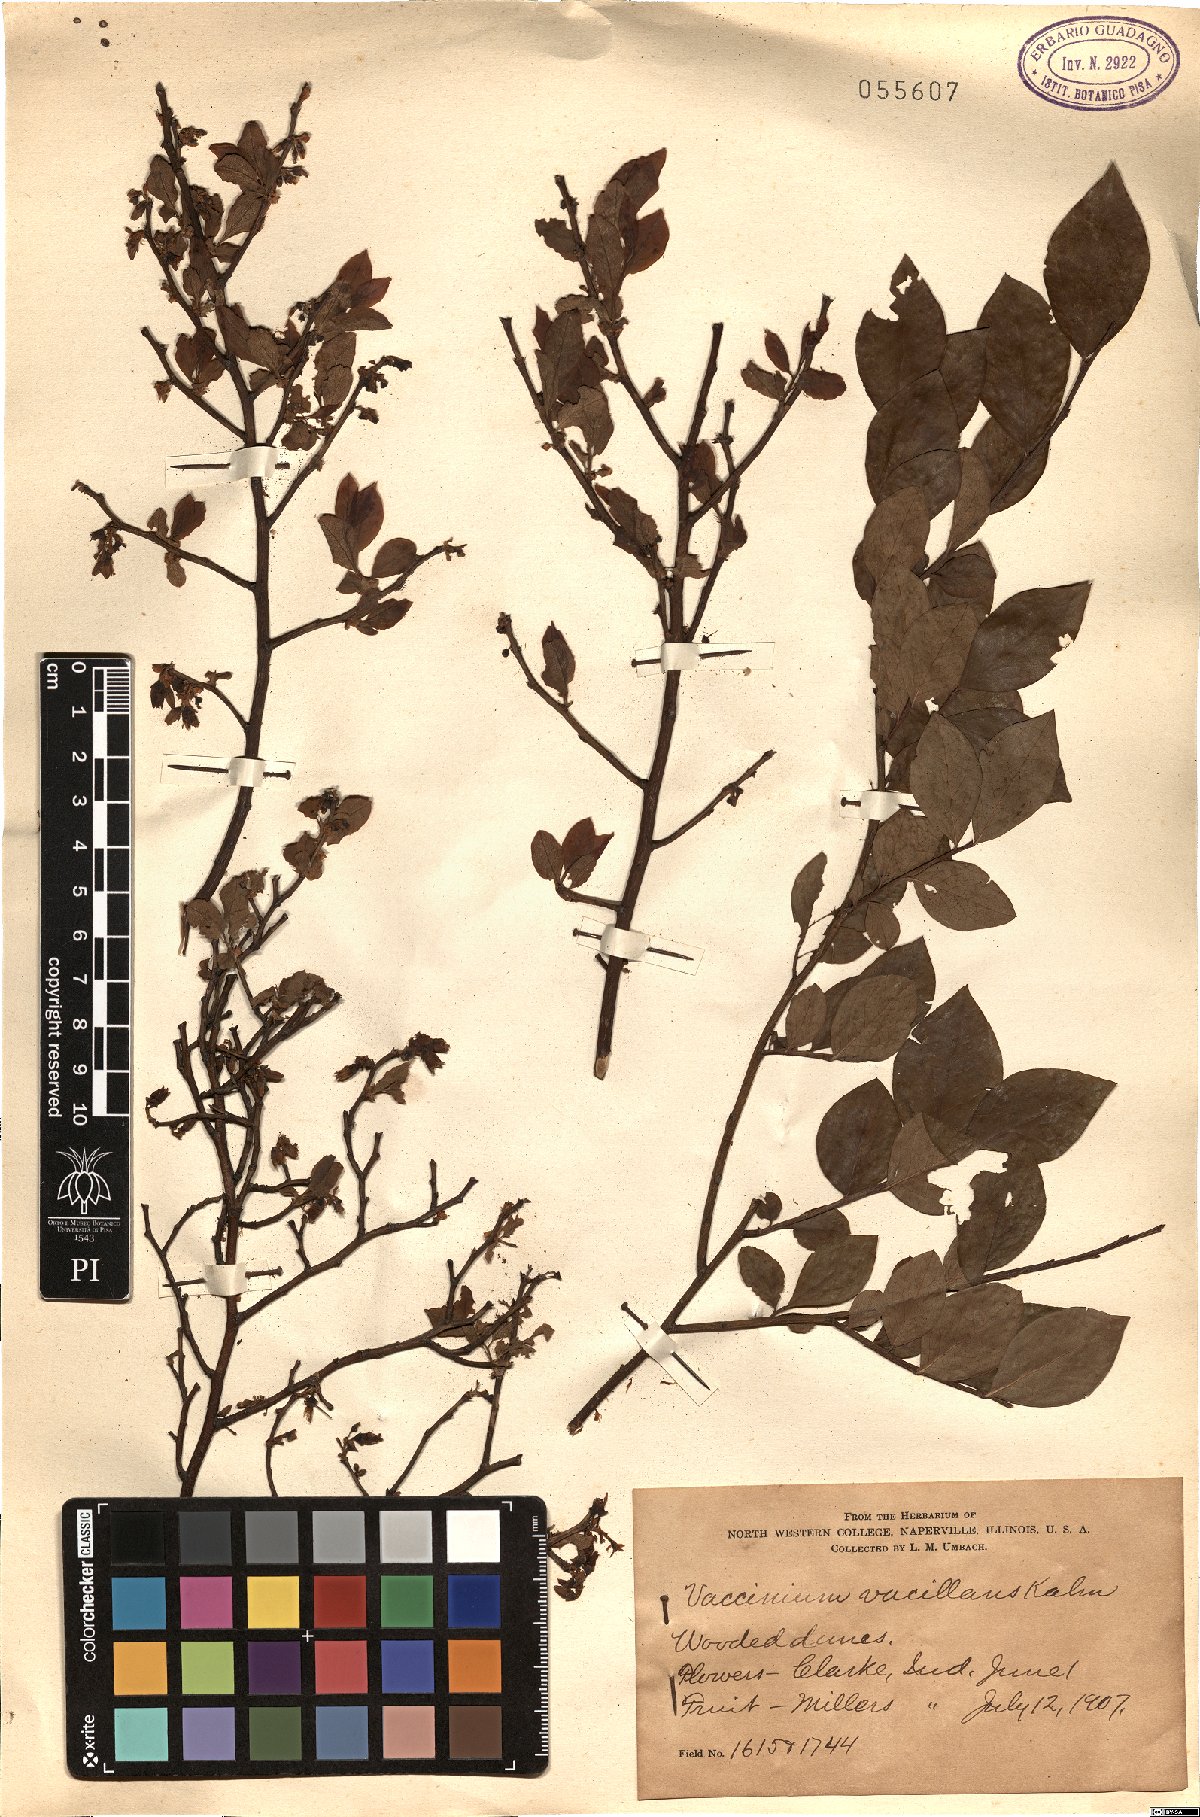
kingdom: Plantae
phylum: Tracheophyta
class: Magnoliopsida
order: Ericales
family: Ericaceae
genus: Vaccinium
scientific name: Vaccinium pallidum
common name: Blue ridge blueberry
